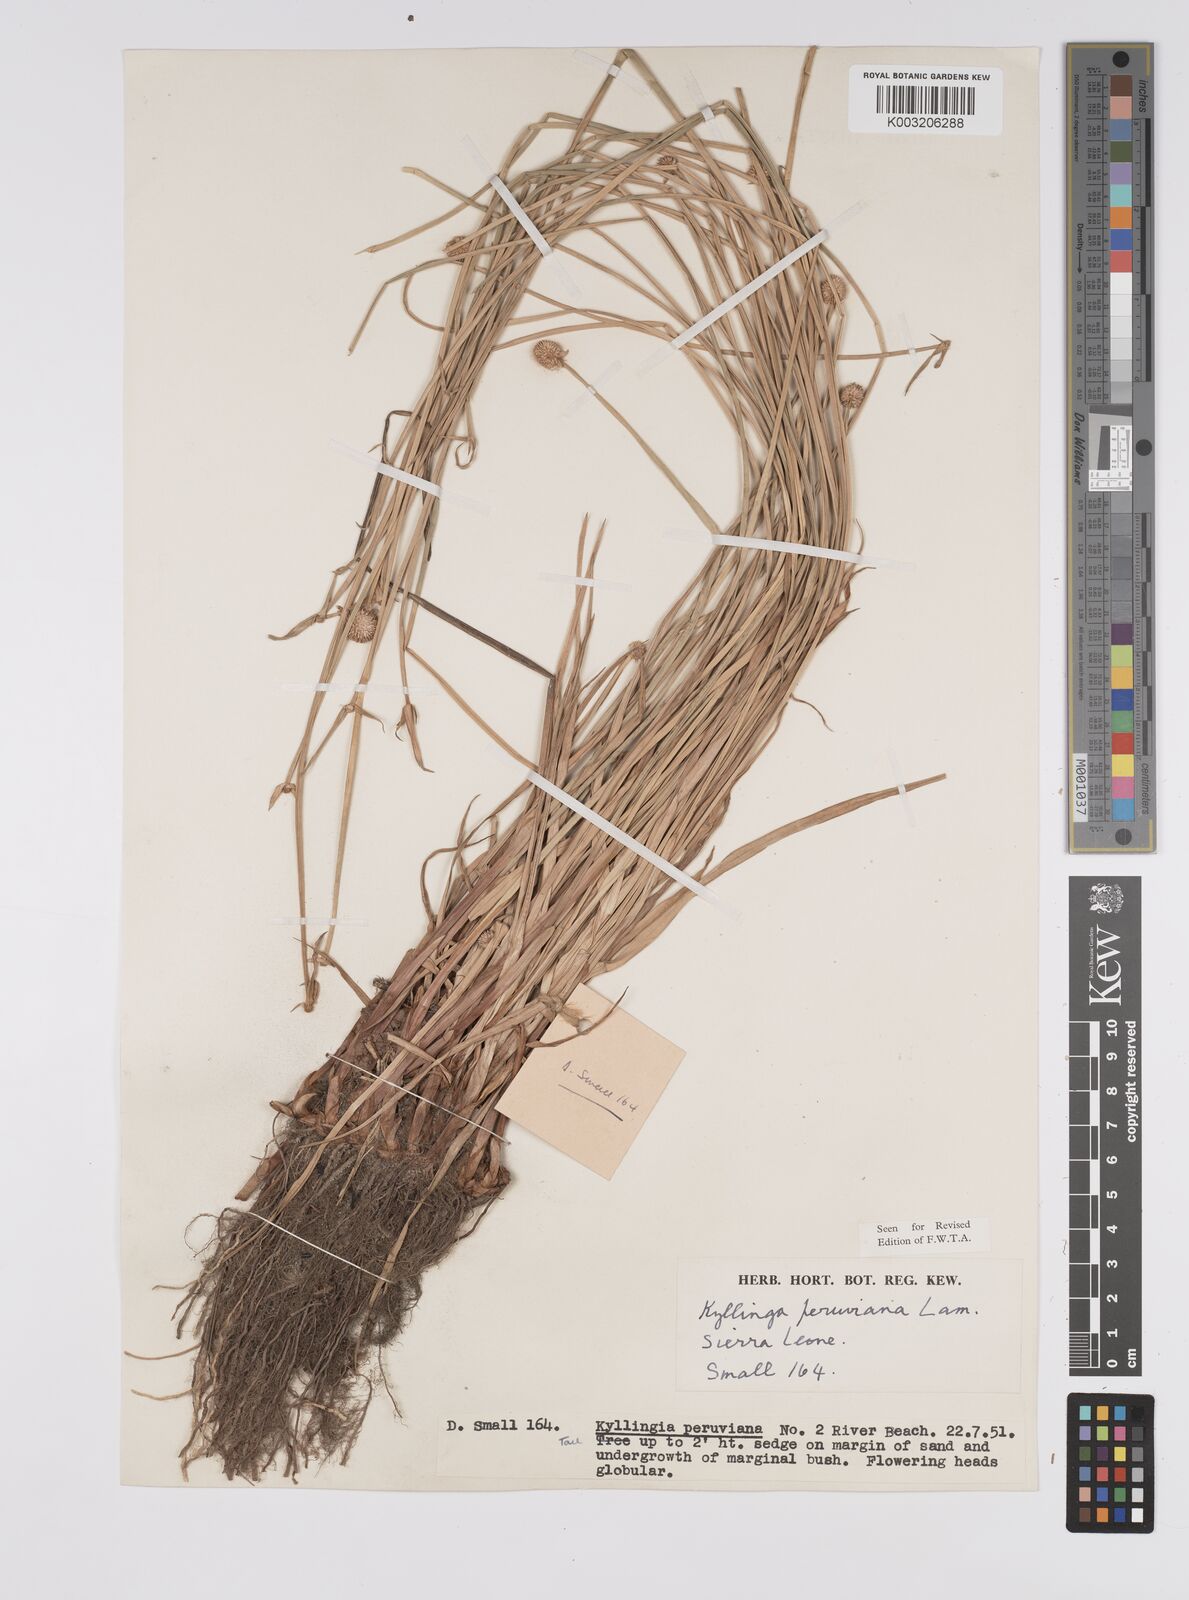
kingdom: Plantae
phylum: Tracheophyta
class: Liliopsida
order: Poales
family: Cyperaceae
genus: Cyperus
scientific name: Cyperus obtusatus
